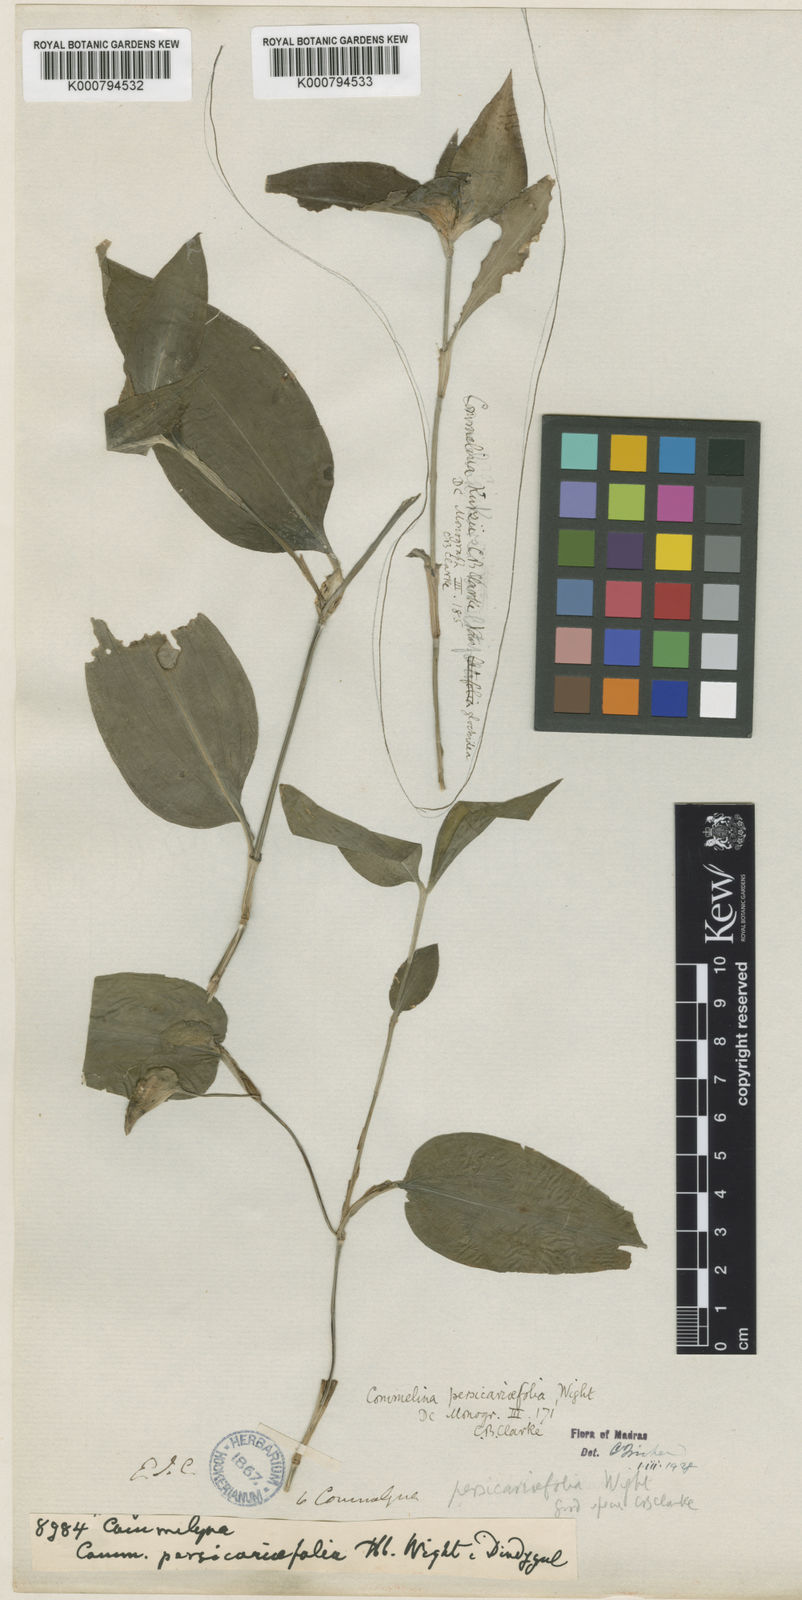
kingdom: Plantae
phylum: Tracheophyta
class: Liliopsida
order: Commelinales
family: Commelinaceae
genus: Commelina
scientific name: Commelina petersii
